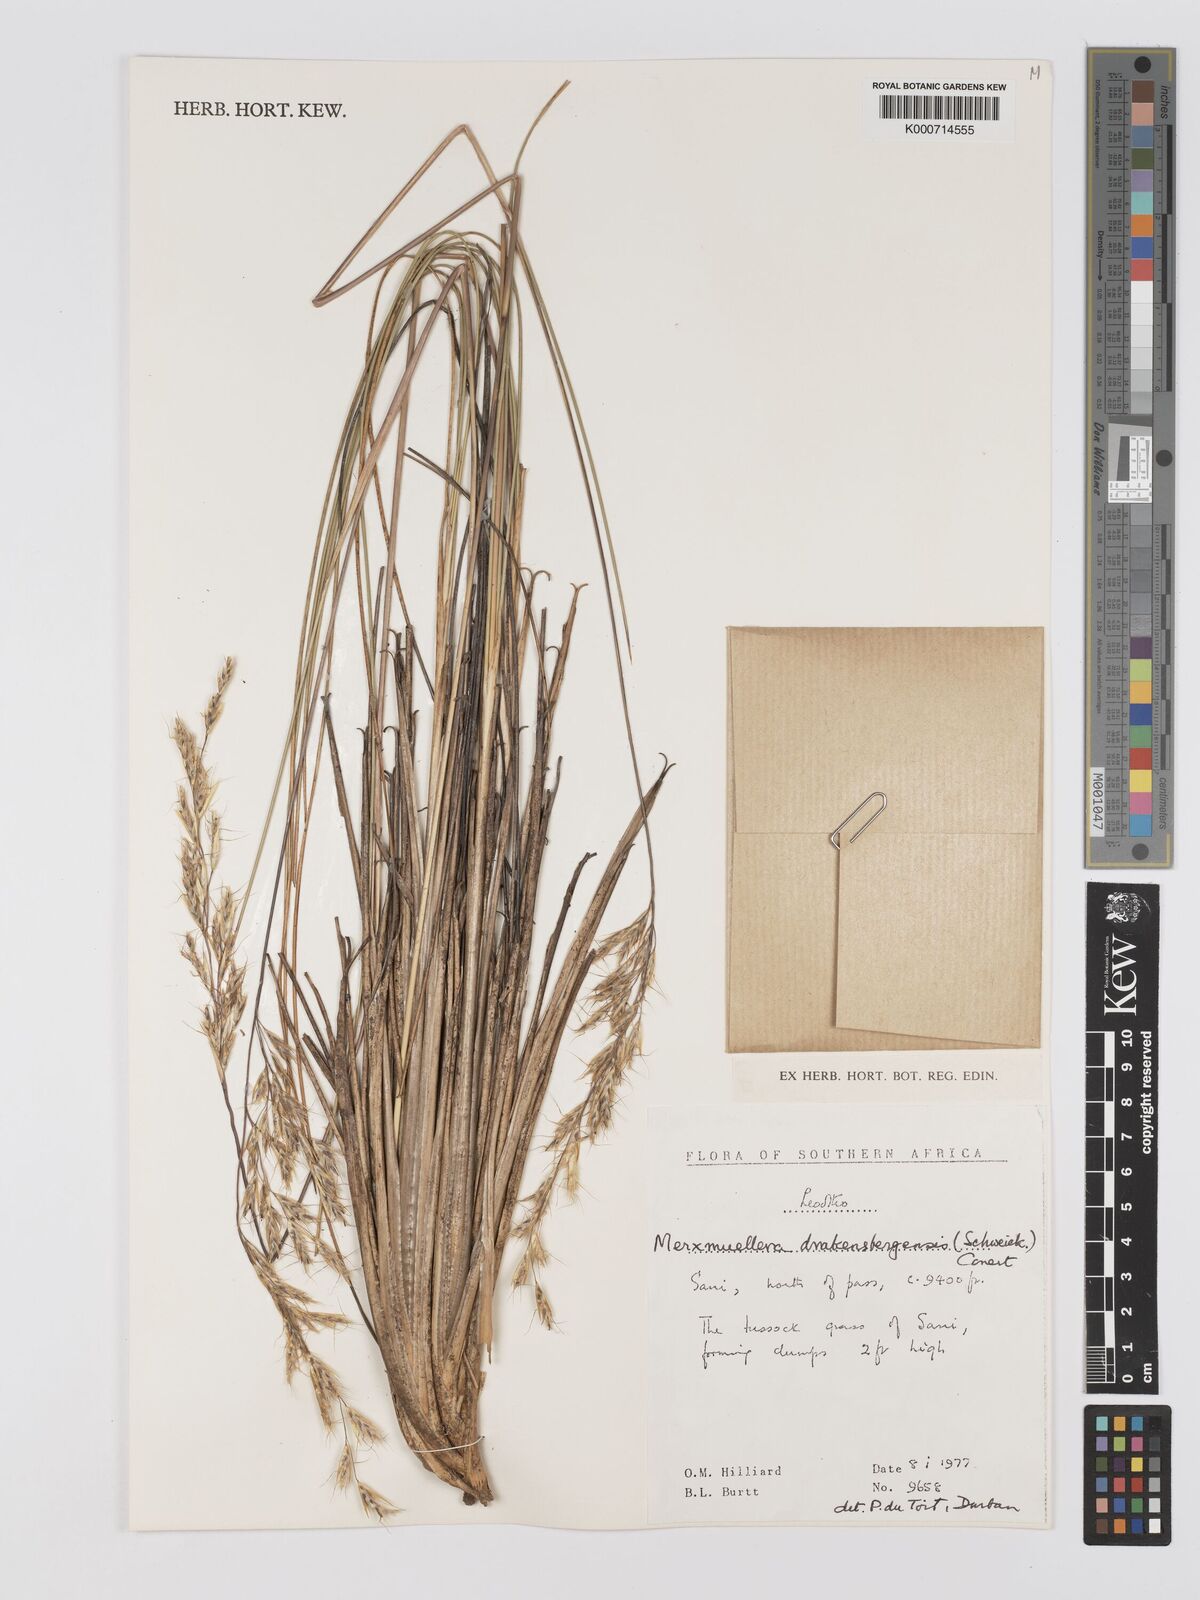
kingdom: Plantae
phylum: Tracheophyta
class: Liliopsida
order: Poales
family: Poaceae
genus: Rytidosperma
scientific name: Rytidosperma
